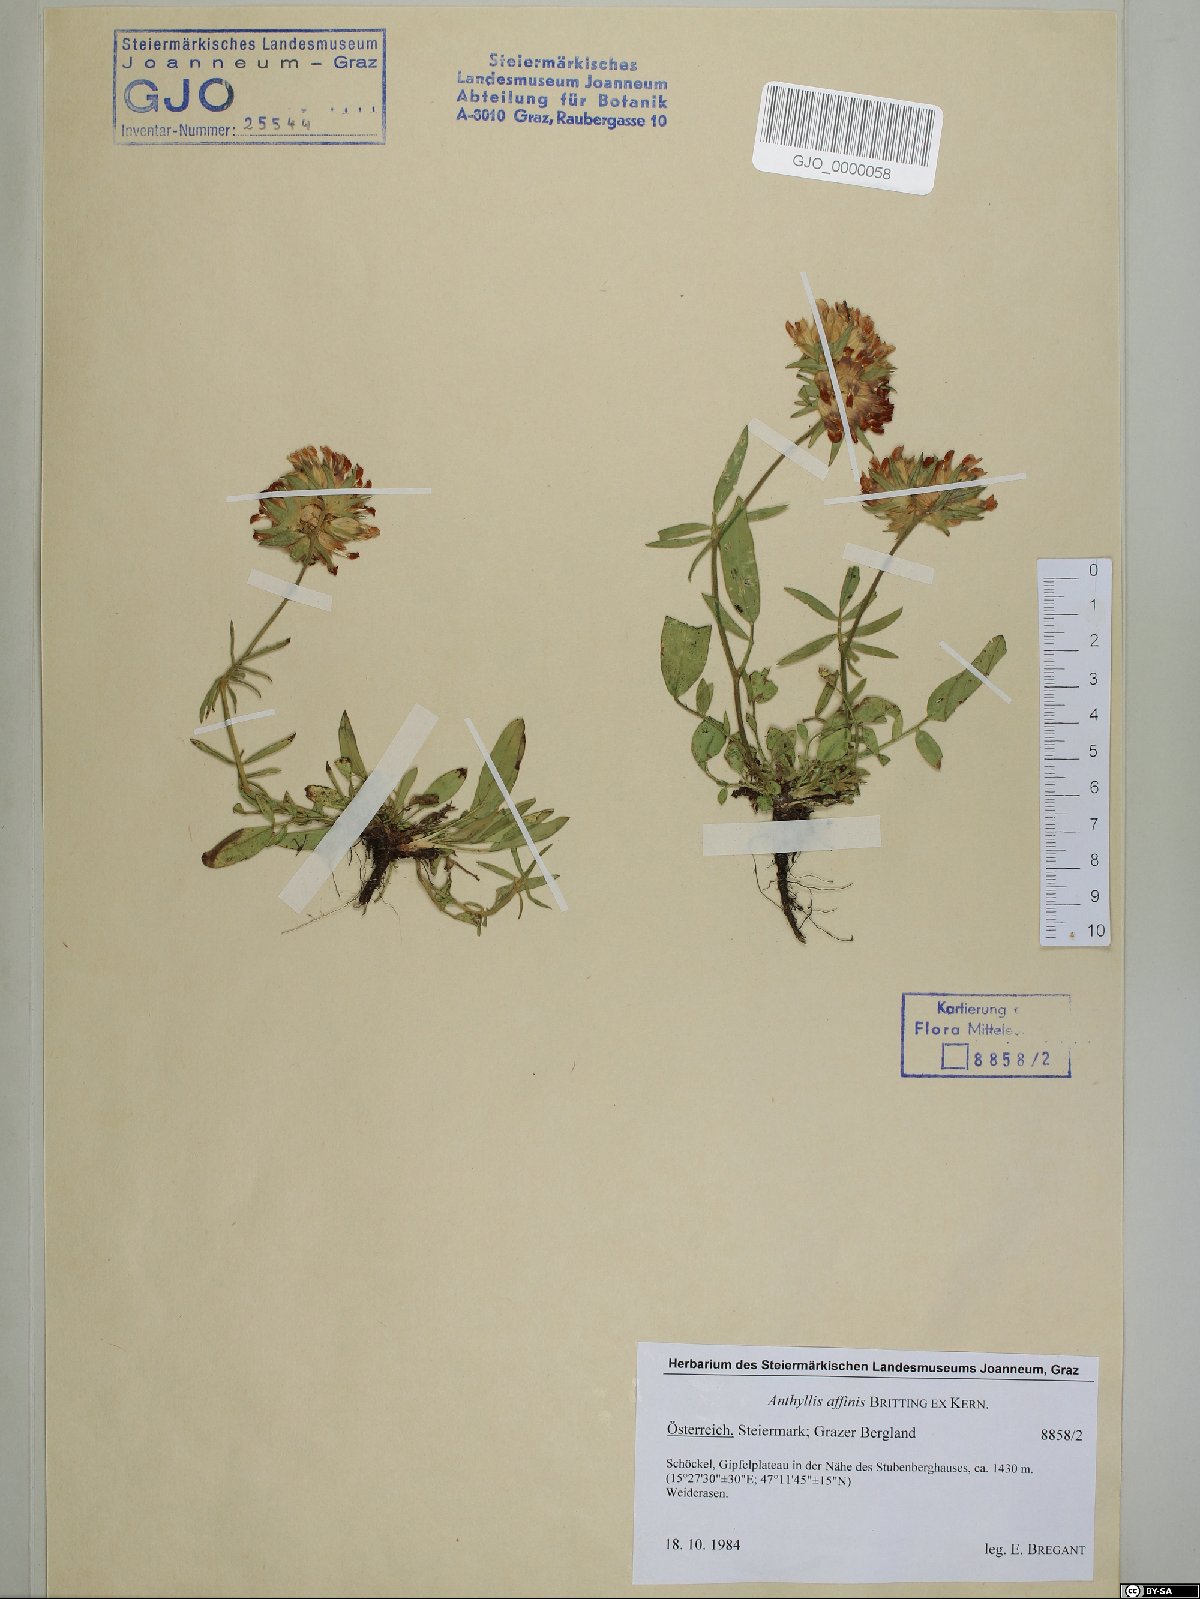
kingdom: Plantae
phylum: Tracheophyta
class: Magnoliopsida
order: Fabales
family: Fabaceae
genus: Anthyllis
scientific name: Anthyllis vulneraria
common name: Kidney vetch
